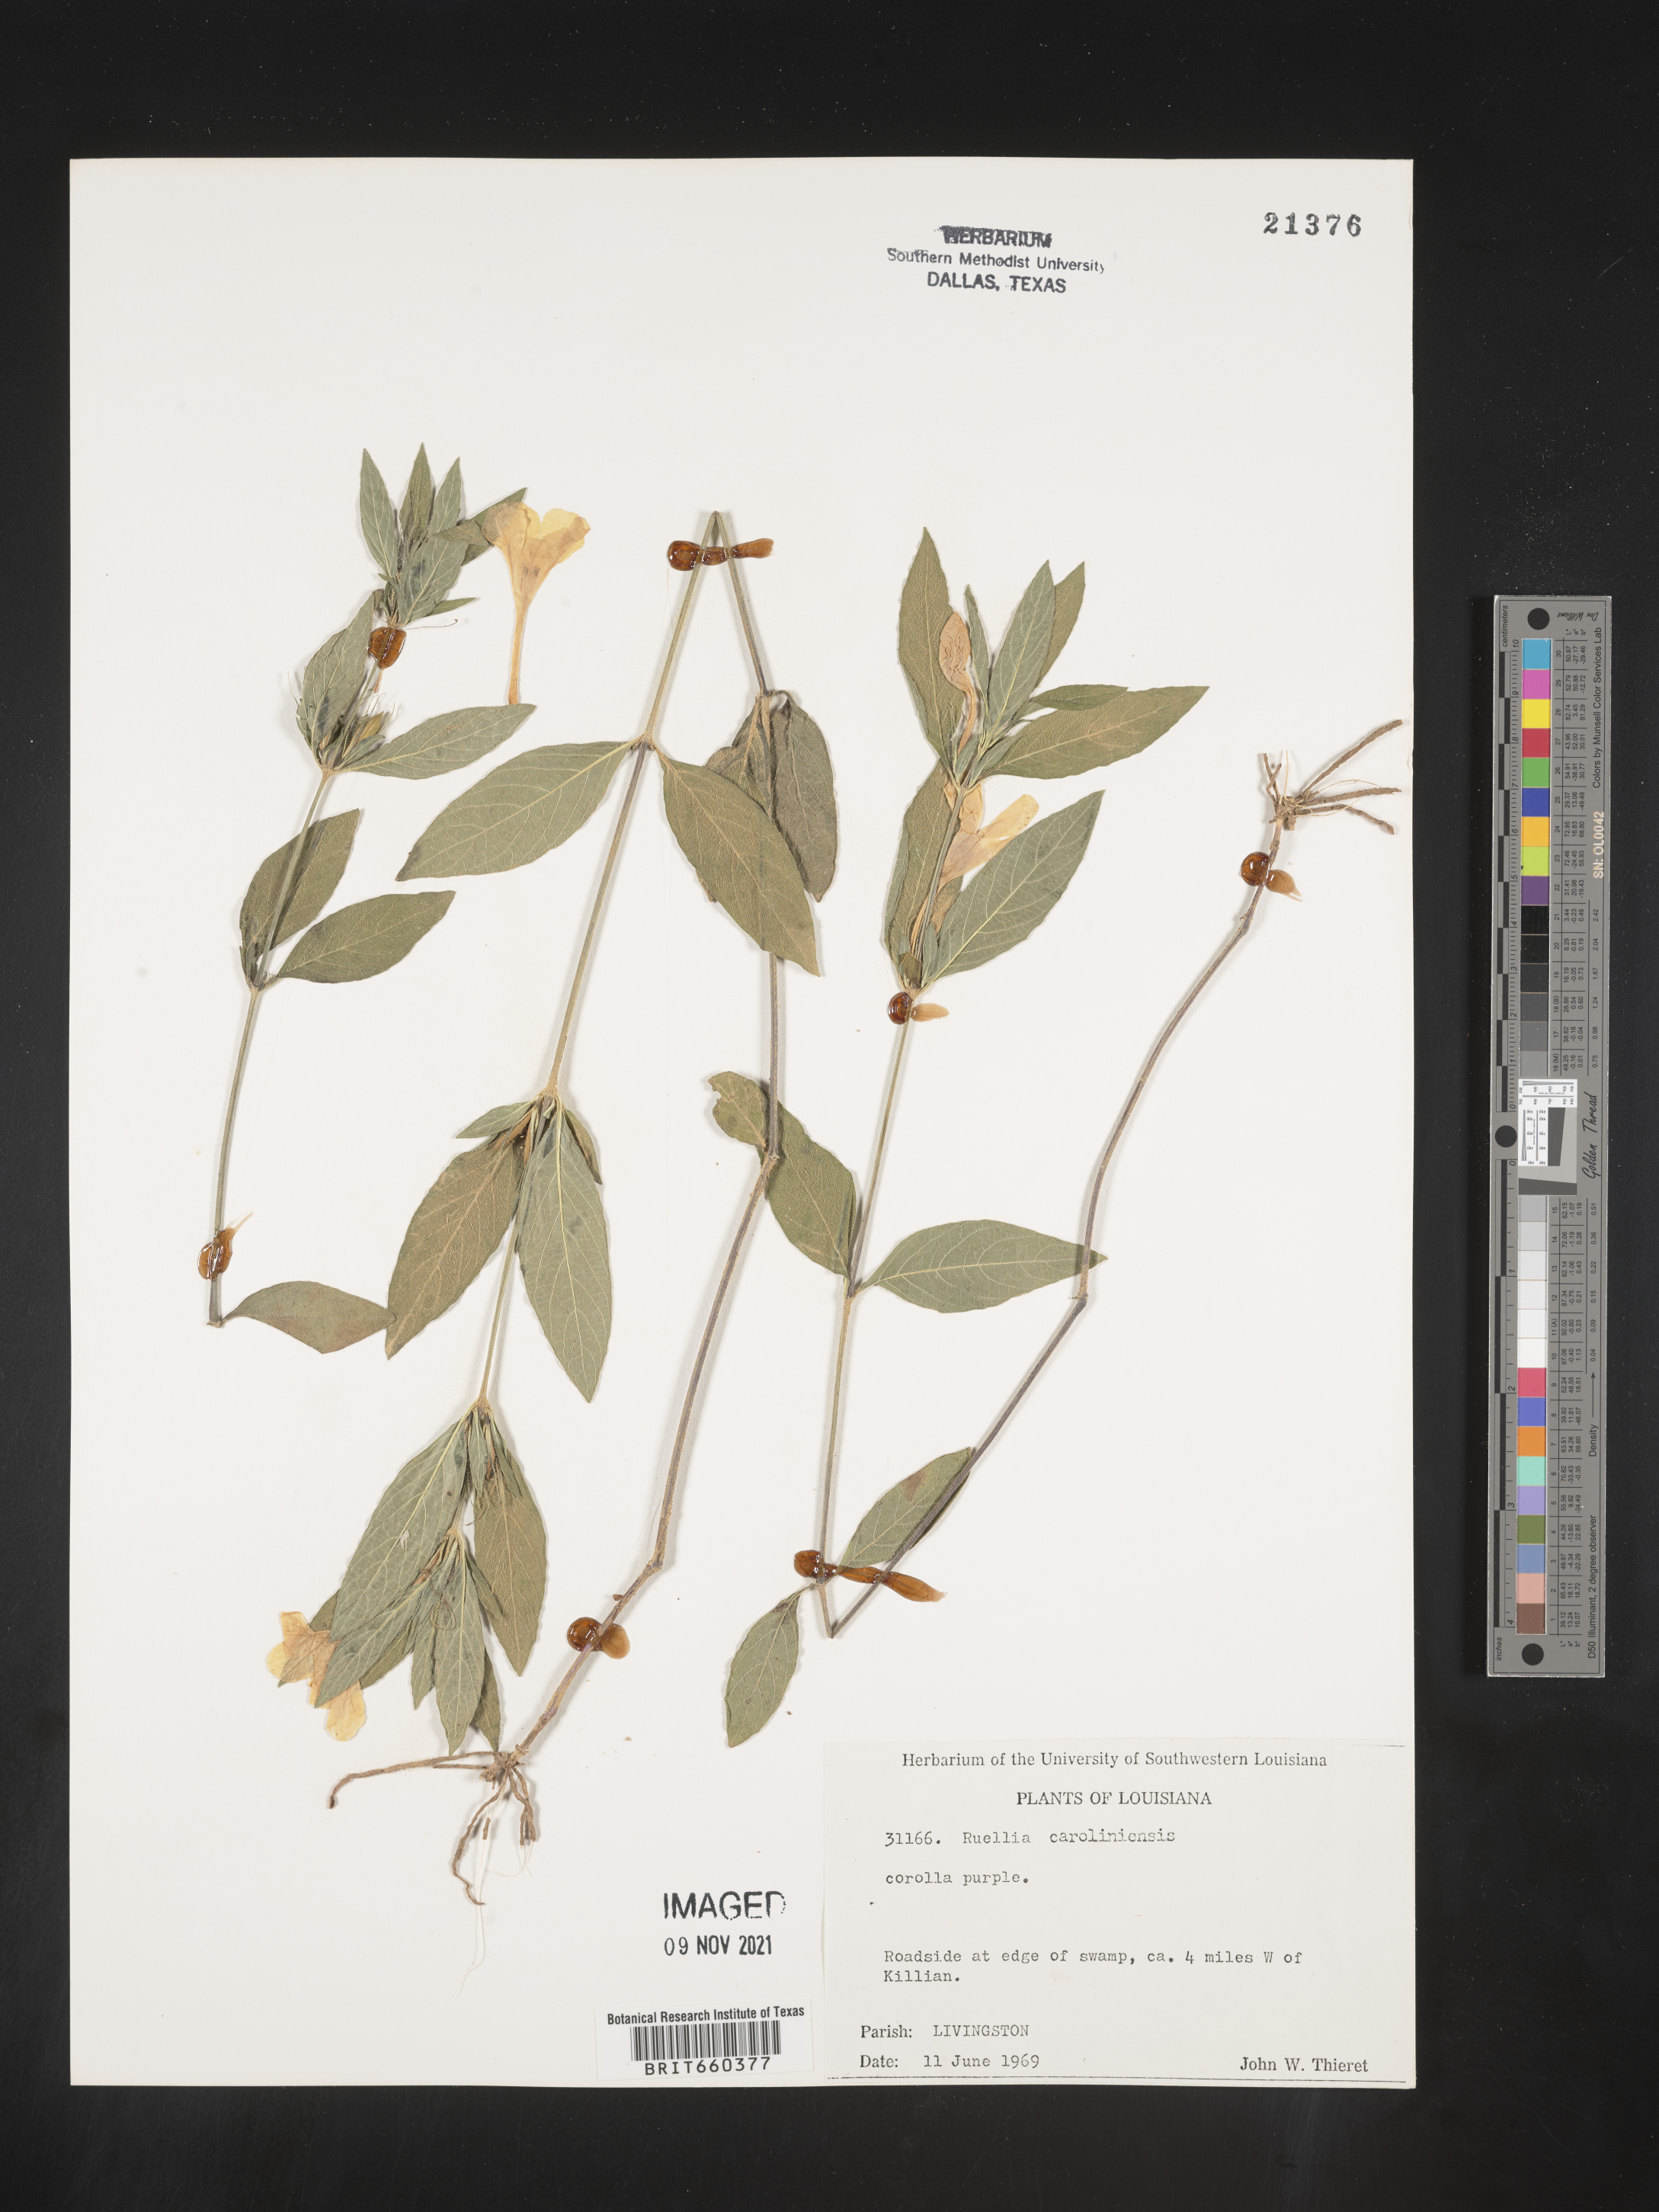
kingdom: Plantae
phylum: Tracheophyta
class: Magnoliopsida
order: Lamiales
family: Acanthaceae
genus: Ruellia
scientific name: Ruellia caroliniensis
